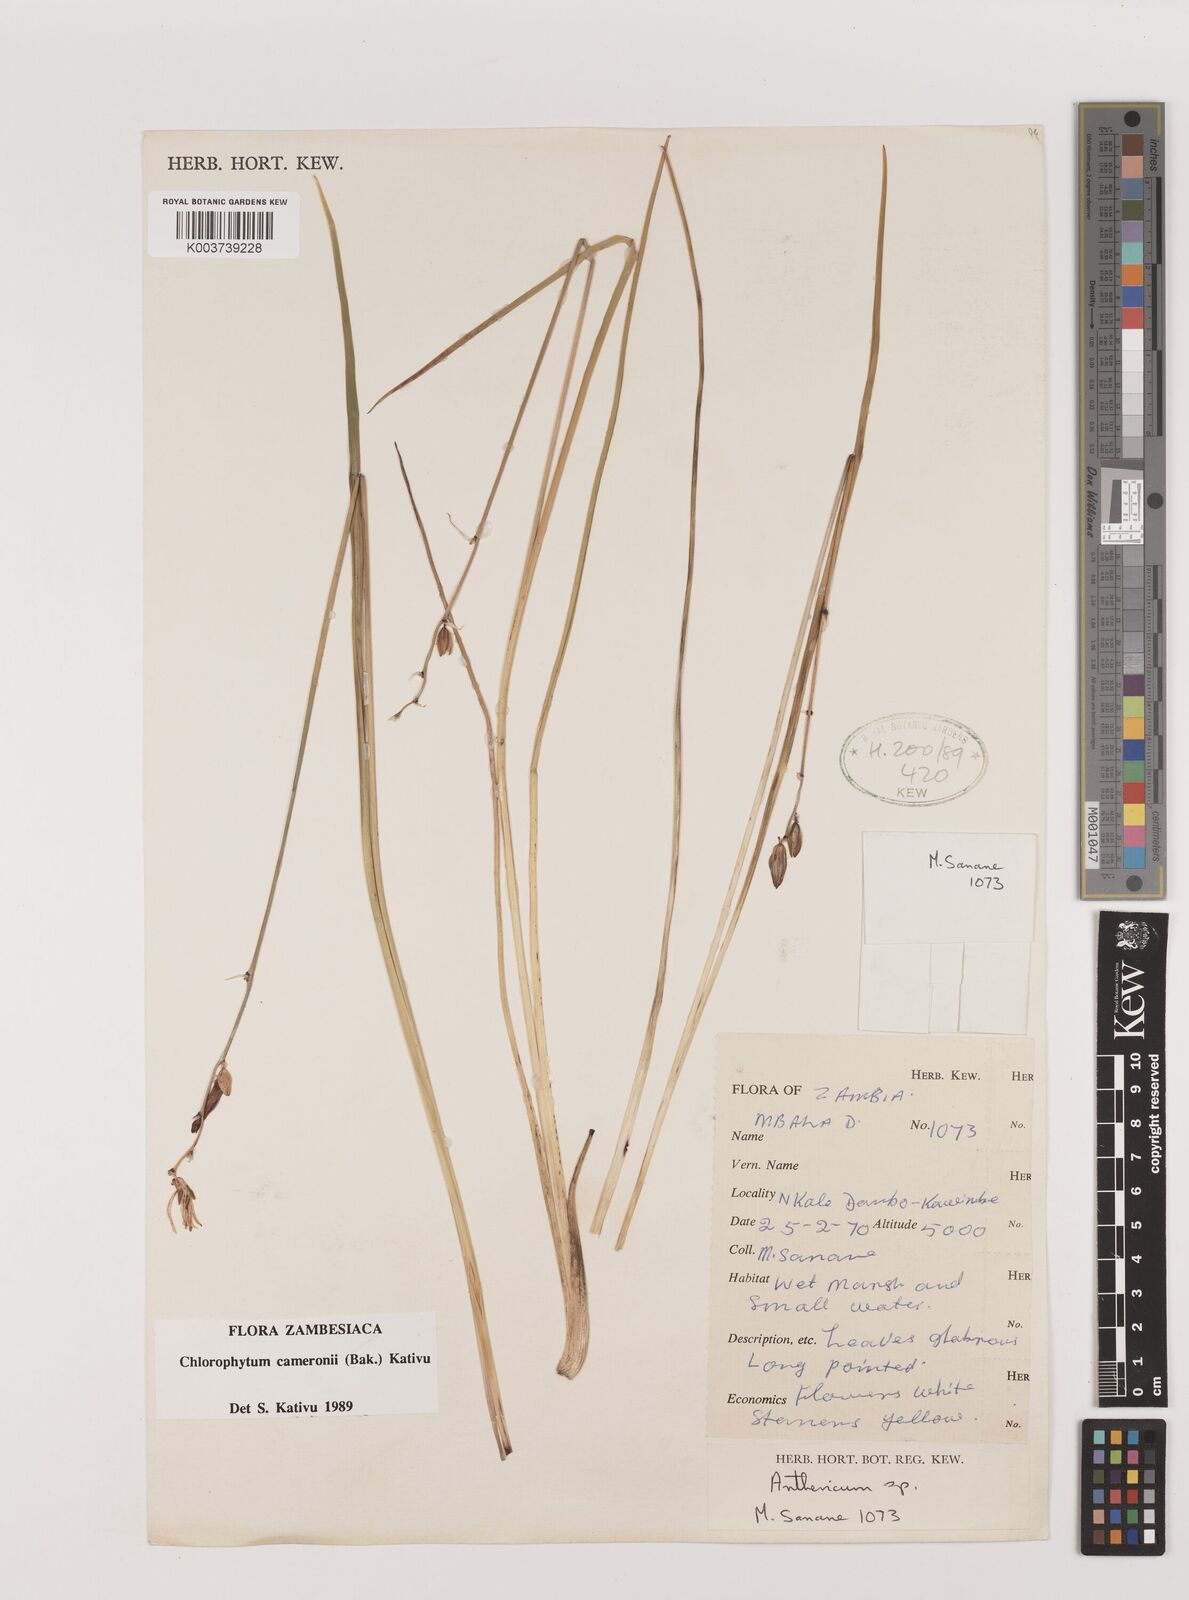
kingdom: Plantae
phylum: Tracheophyta
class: Liliopsida
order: Asparagales
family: Asparagaceae
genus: Chlorophytum
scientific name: Chlorophytum cameronii
